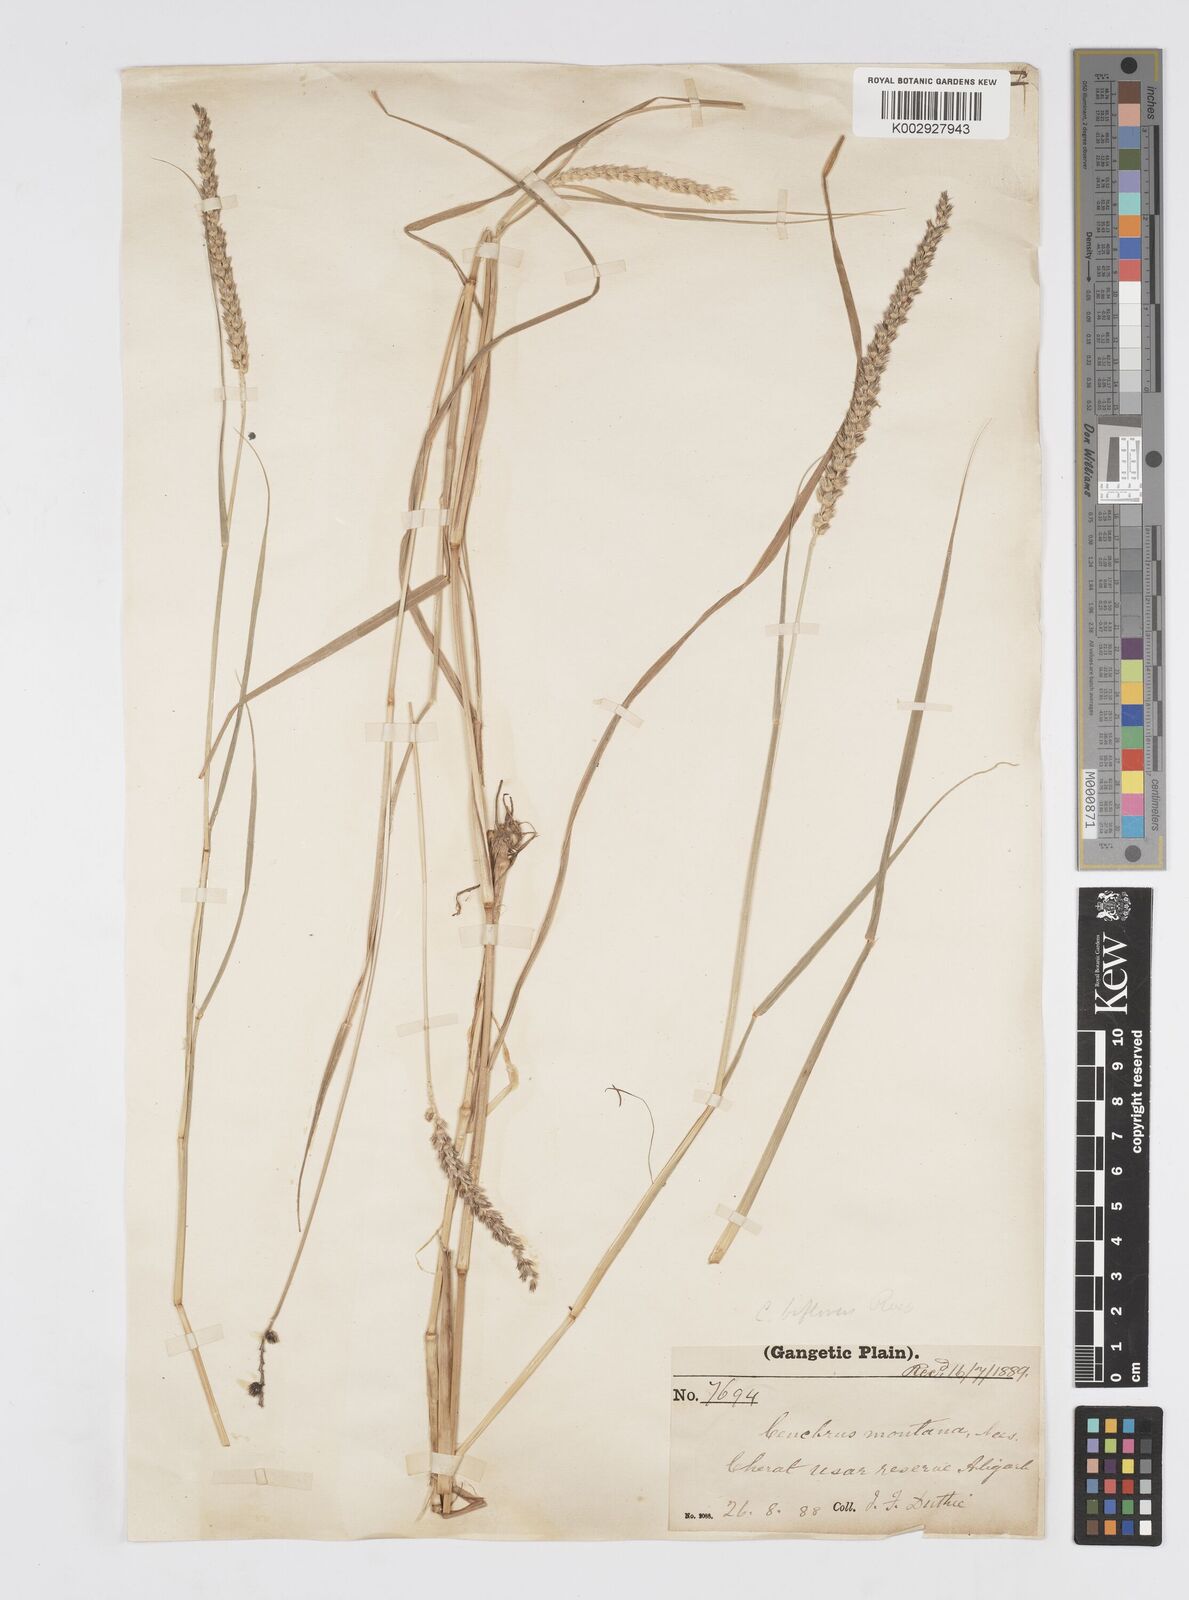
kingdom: Plantae
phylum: Tracheophyta
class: Liliopsida
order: Poales
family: Poaceae
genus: Cenchrus
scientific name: Cenchrus setigerus
